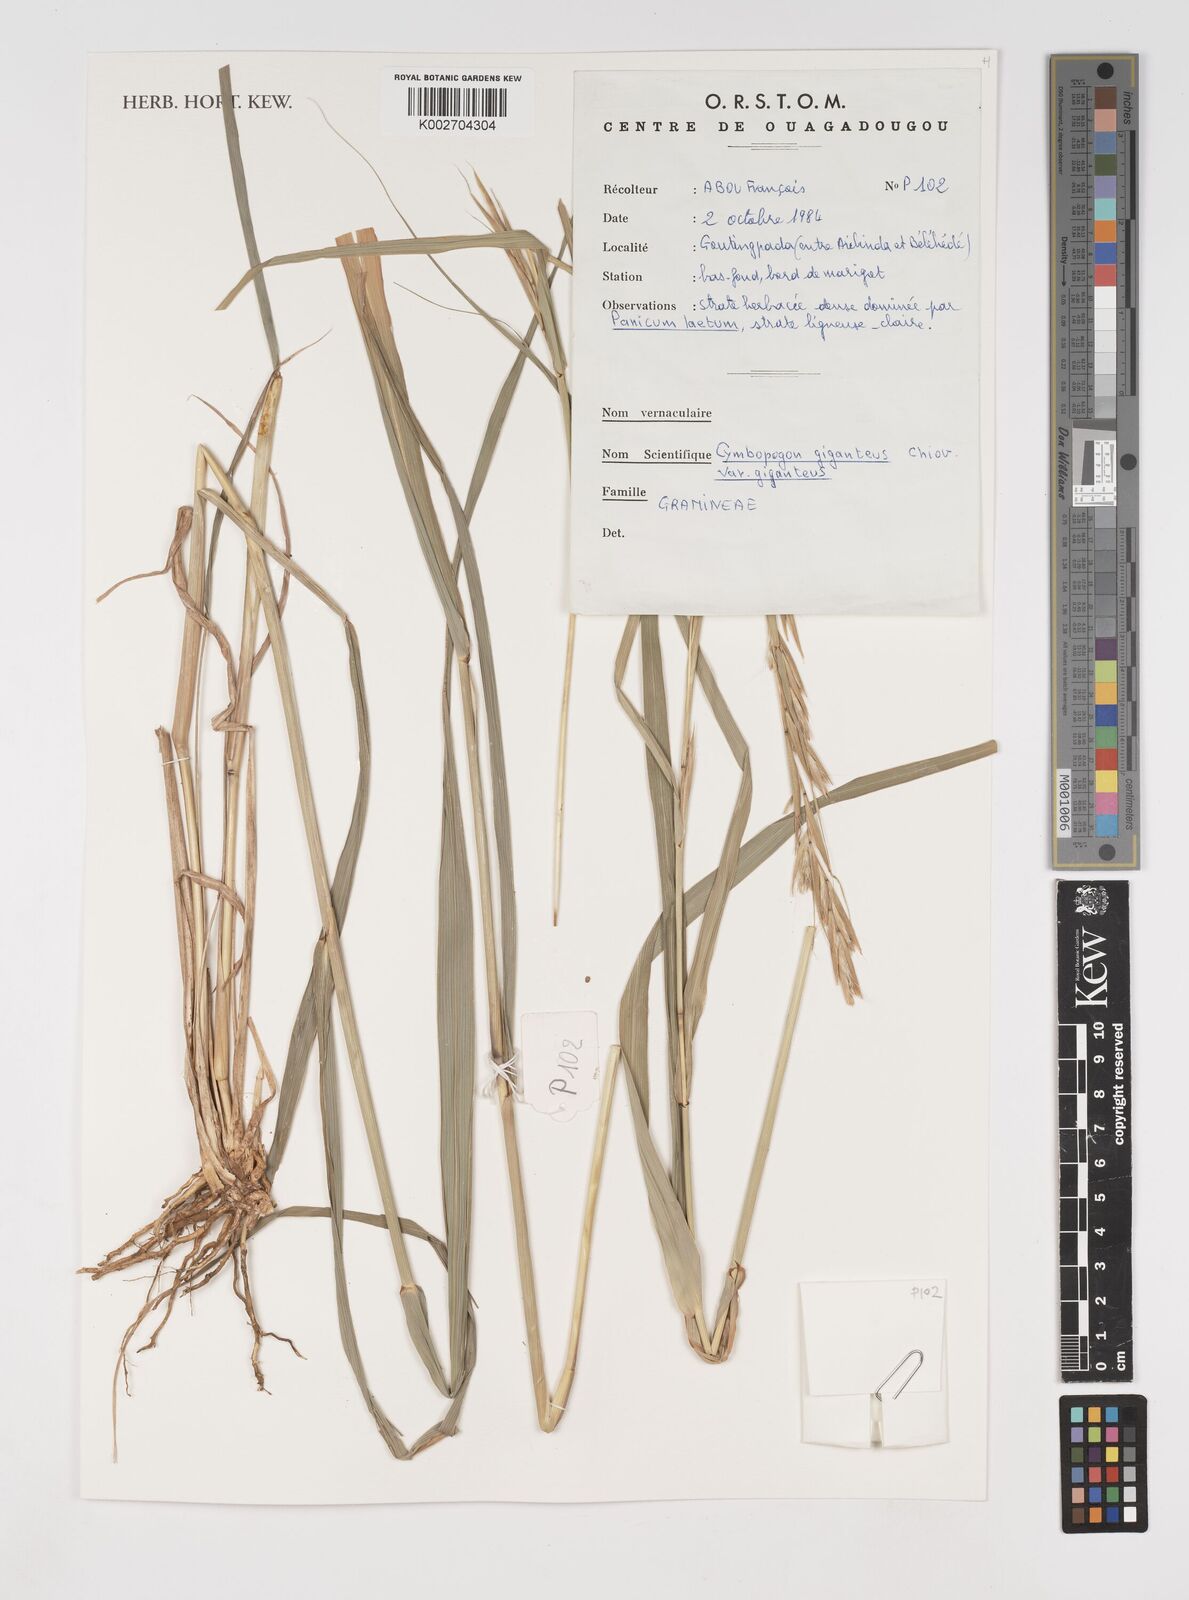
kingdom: Plantae
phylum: Tracheophyta
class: Liliopsida
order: Poales
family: Poaceae
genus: Cymbopogon
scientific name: Cymbopogon giganteus
